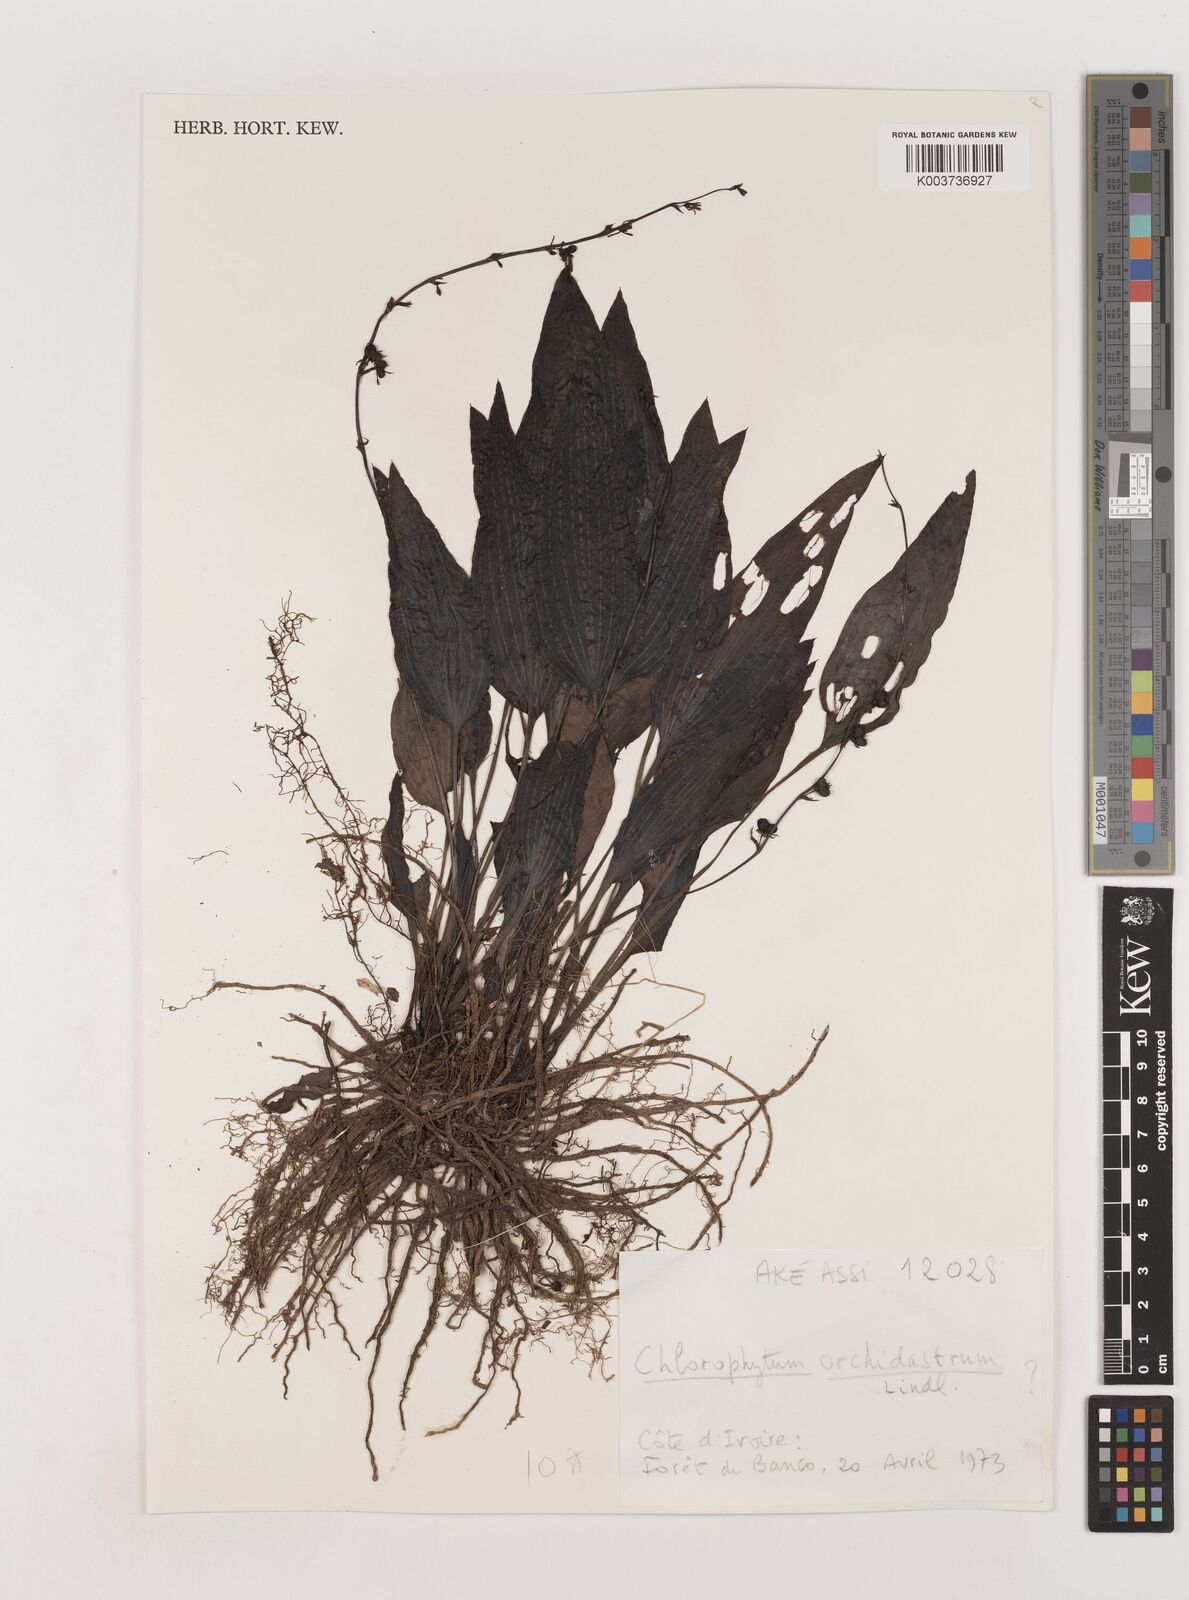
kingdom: Plantae
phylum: Tracheophyta
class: Liliopsida
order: Asparagales
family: Asparagaceae
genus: Chlorophytum
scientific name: Chlorophytum orchidastrum
